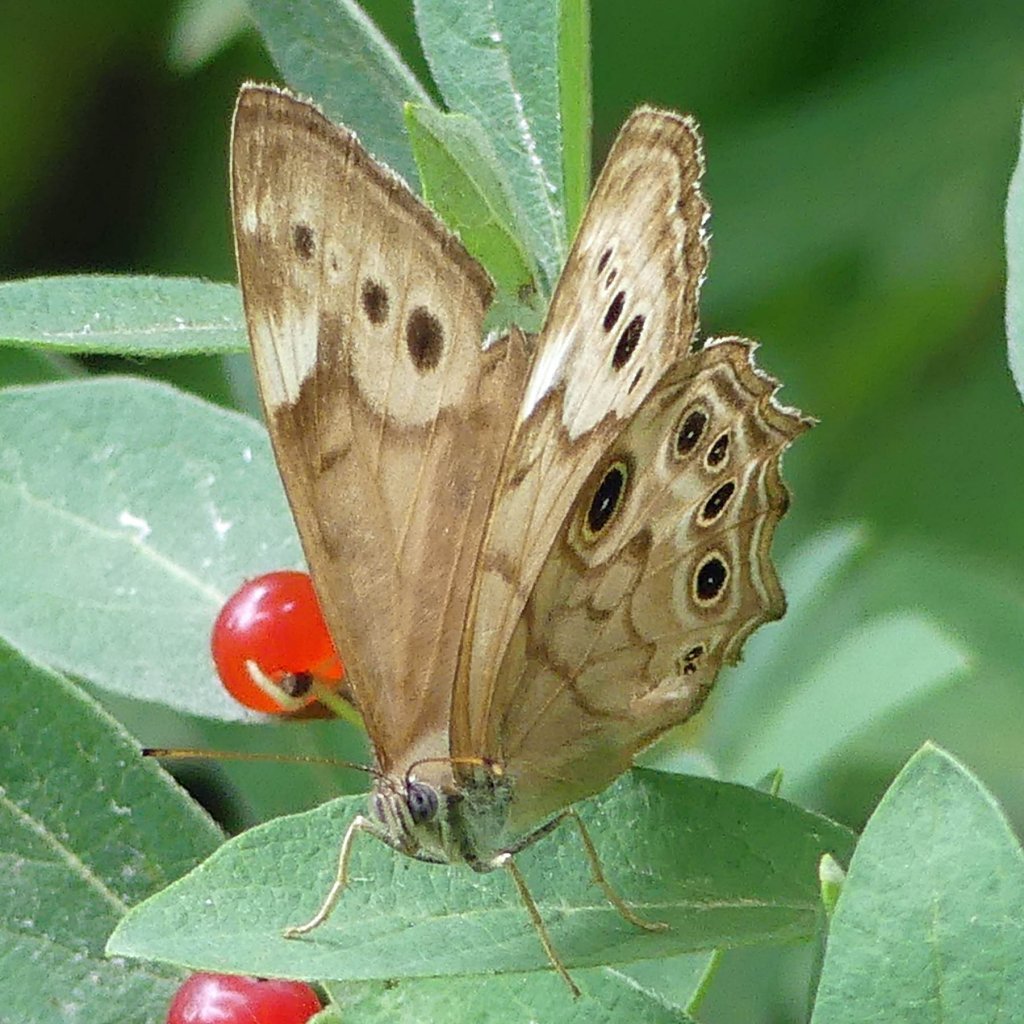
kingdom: Animalia
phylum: Arthropoda
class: Insecta
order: Lepidoptera
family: Nymphalidae
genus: Lethe
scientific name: Lethe anthedon
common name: Northern Pearly-Eye
